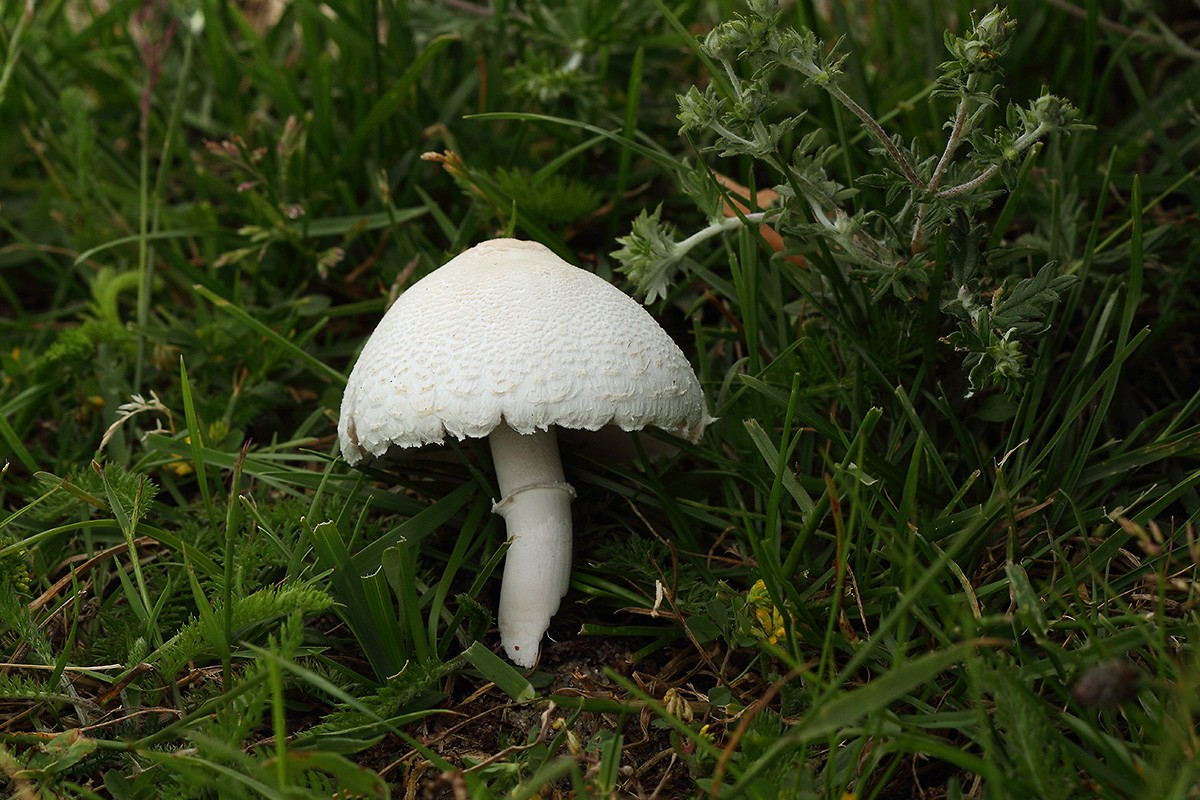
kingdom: Fungi
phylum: Basidiomycota
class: Agaricomycetes
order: Agaricales
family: Agaricaceae
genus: Macrolepiota
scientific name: Macrolepiota excoriata
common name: mark-kæmpeparasolhat
